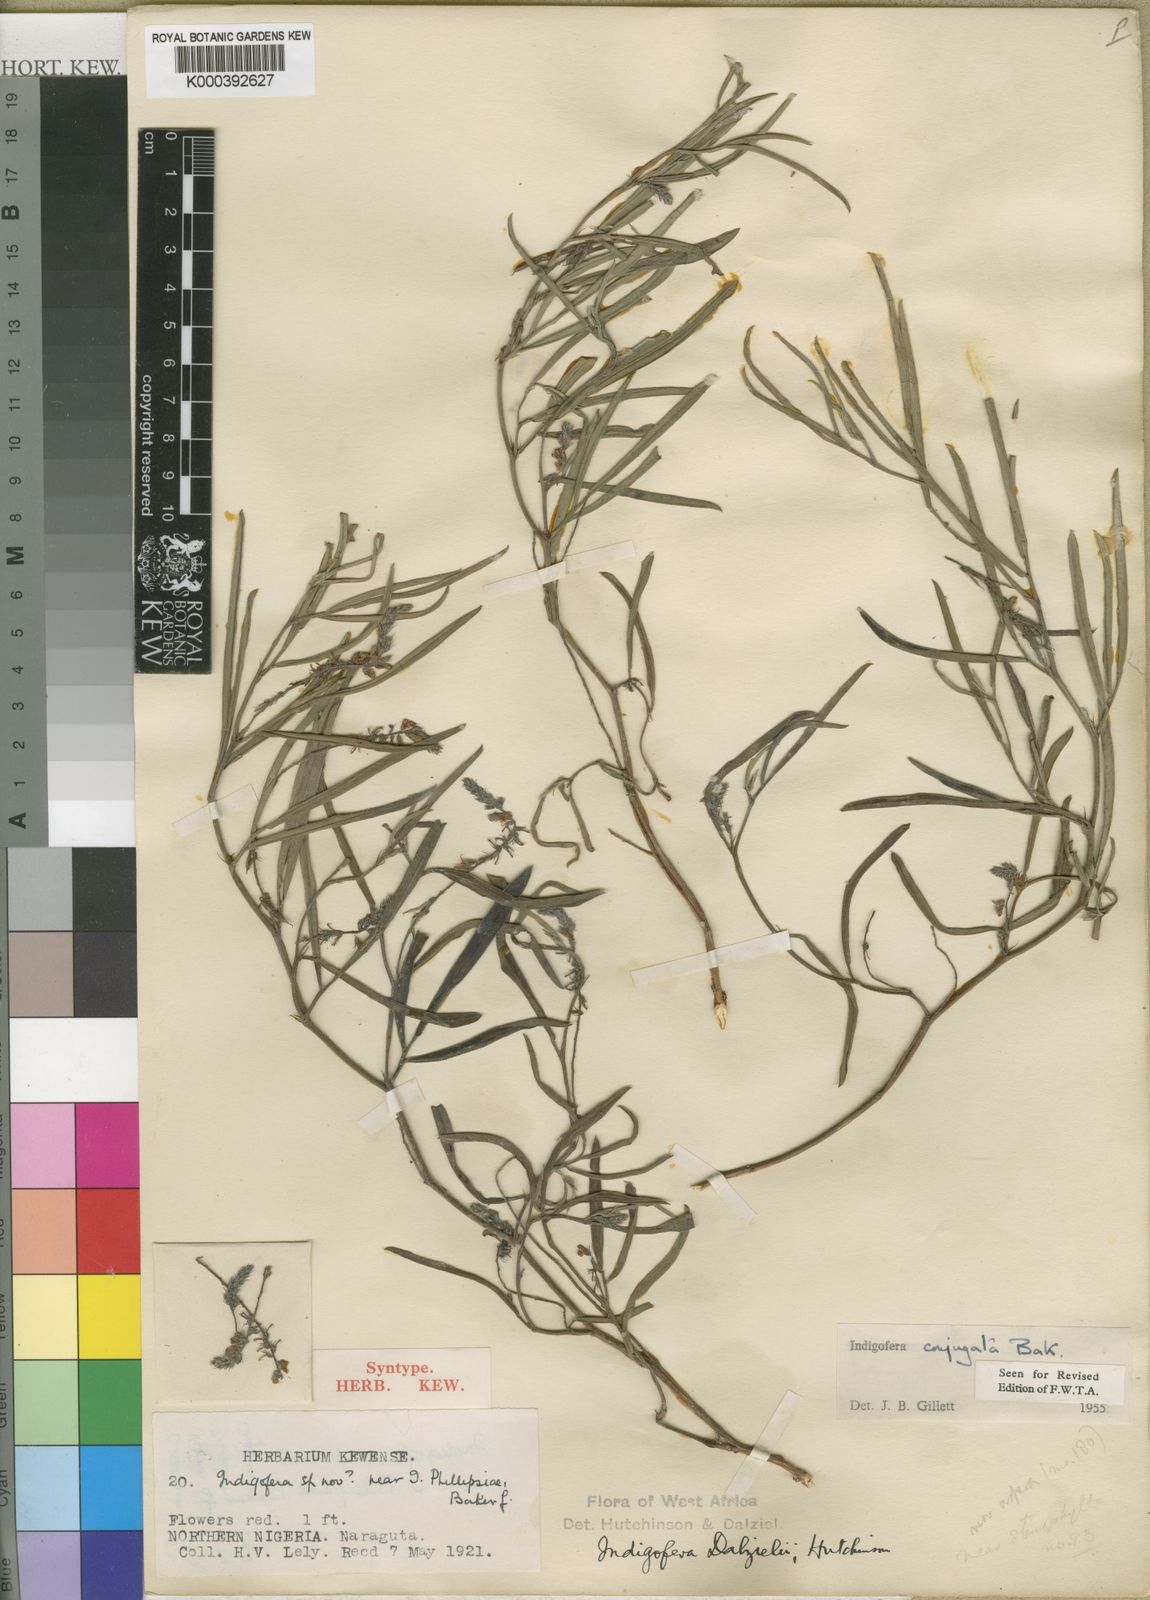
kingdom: Plantae
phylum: Tracheophyta
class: Magnoliopsida
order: Fabales
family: Fabaceae
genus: Indigofera
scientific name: Indigofera conjugata
